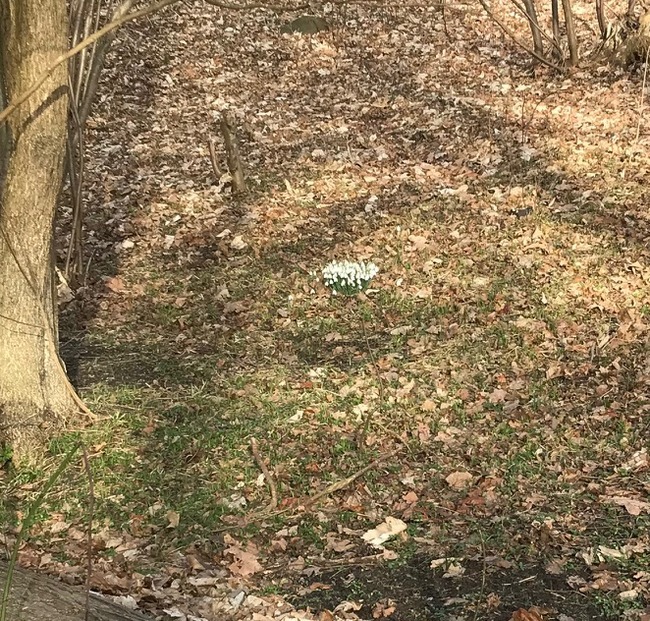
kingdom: Plantae
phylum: Tracheophyta
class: Liliopsida
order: Asparagales
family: Amaryllidaceae
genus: Galanthus
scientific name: Galanthus nivalis
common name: Vintergæk
